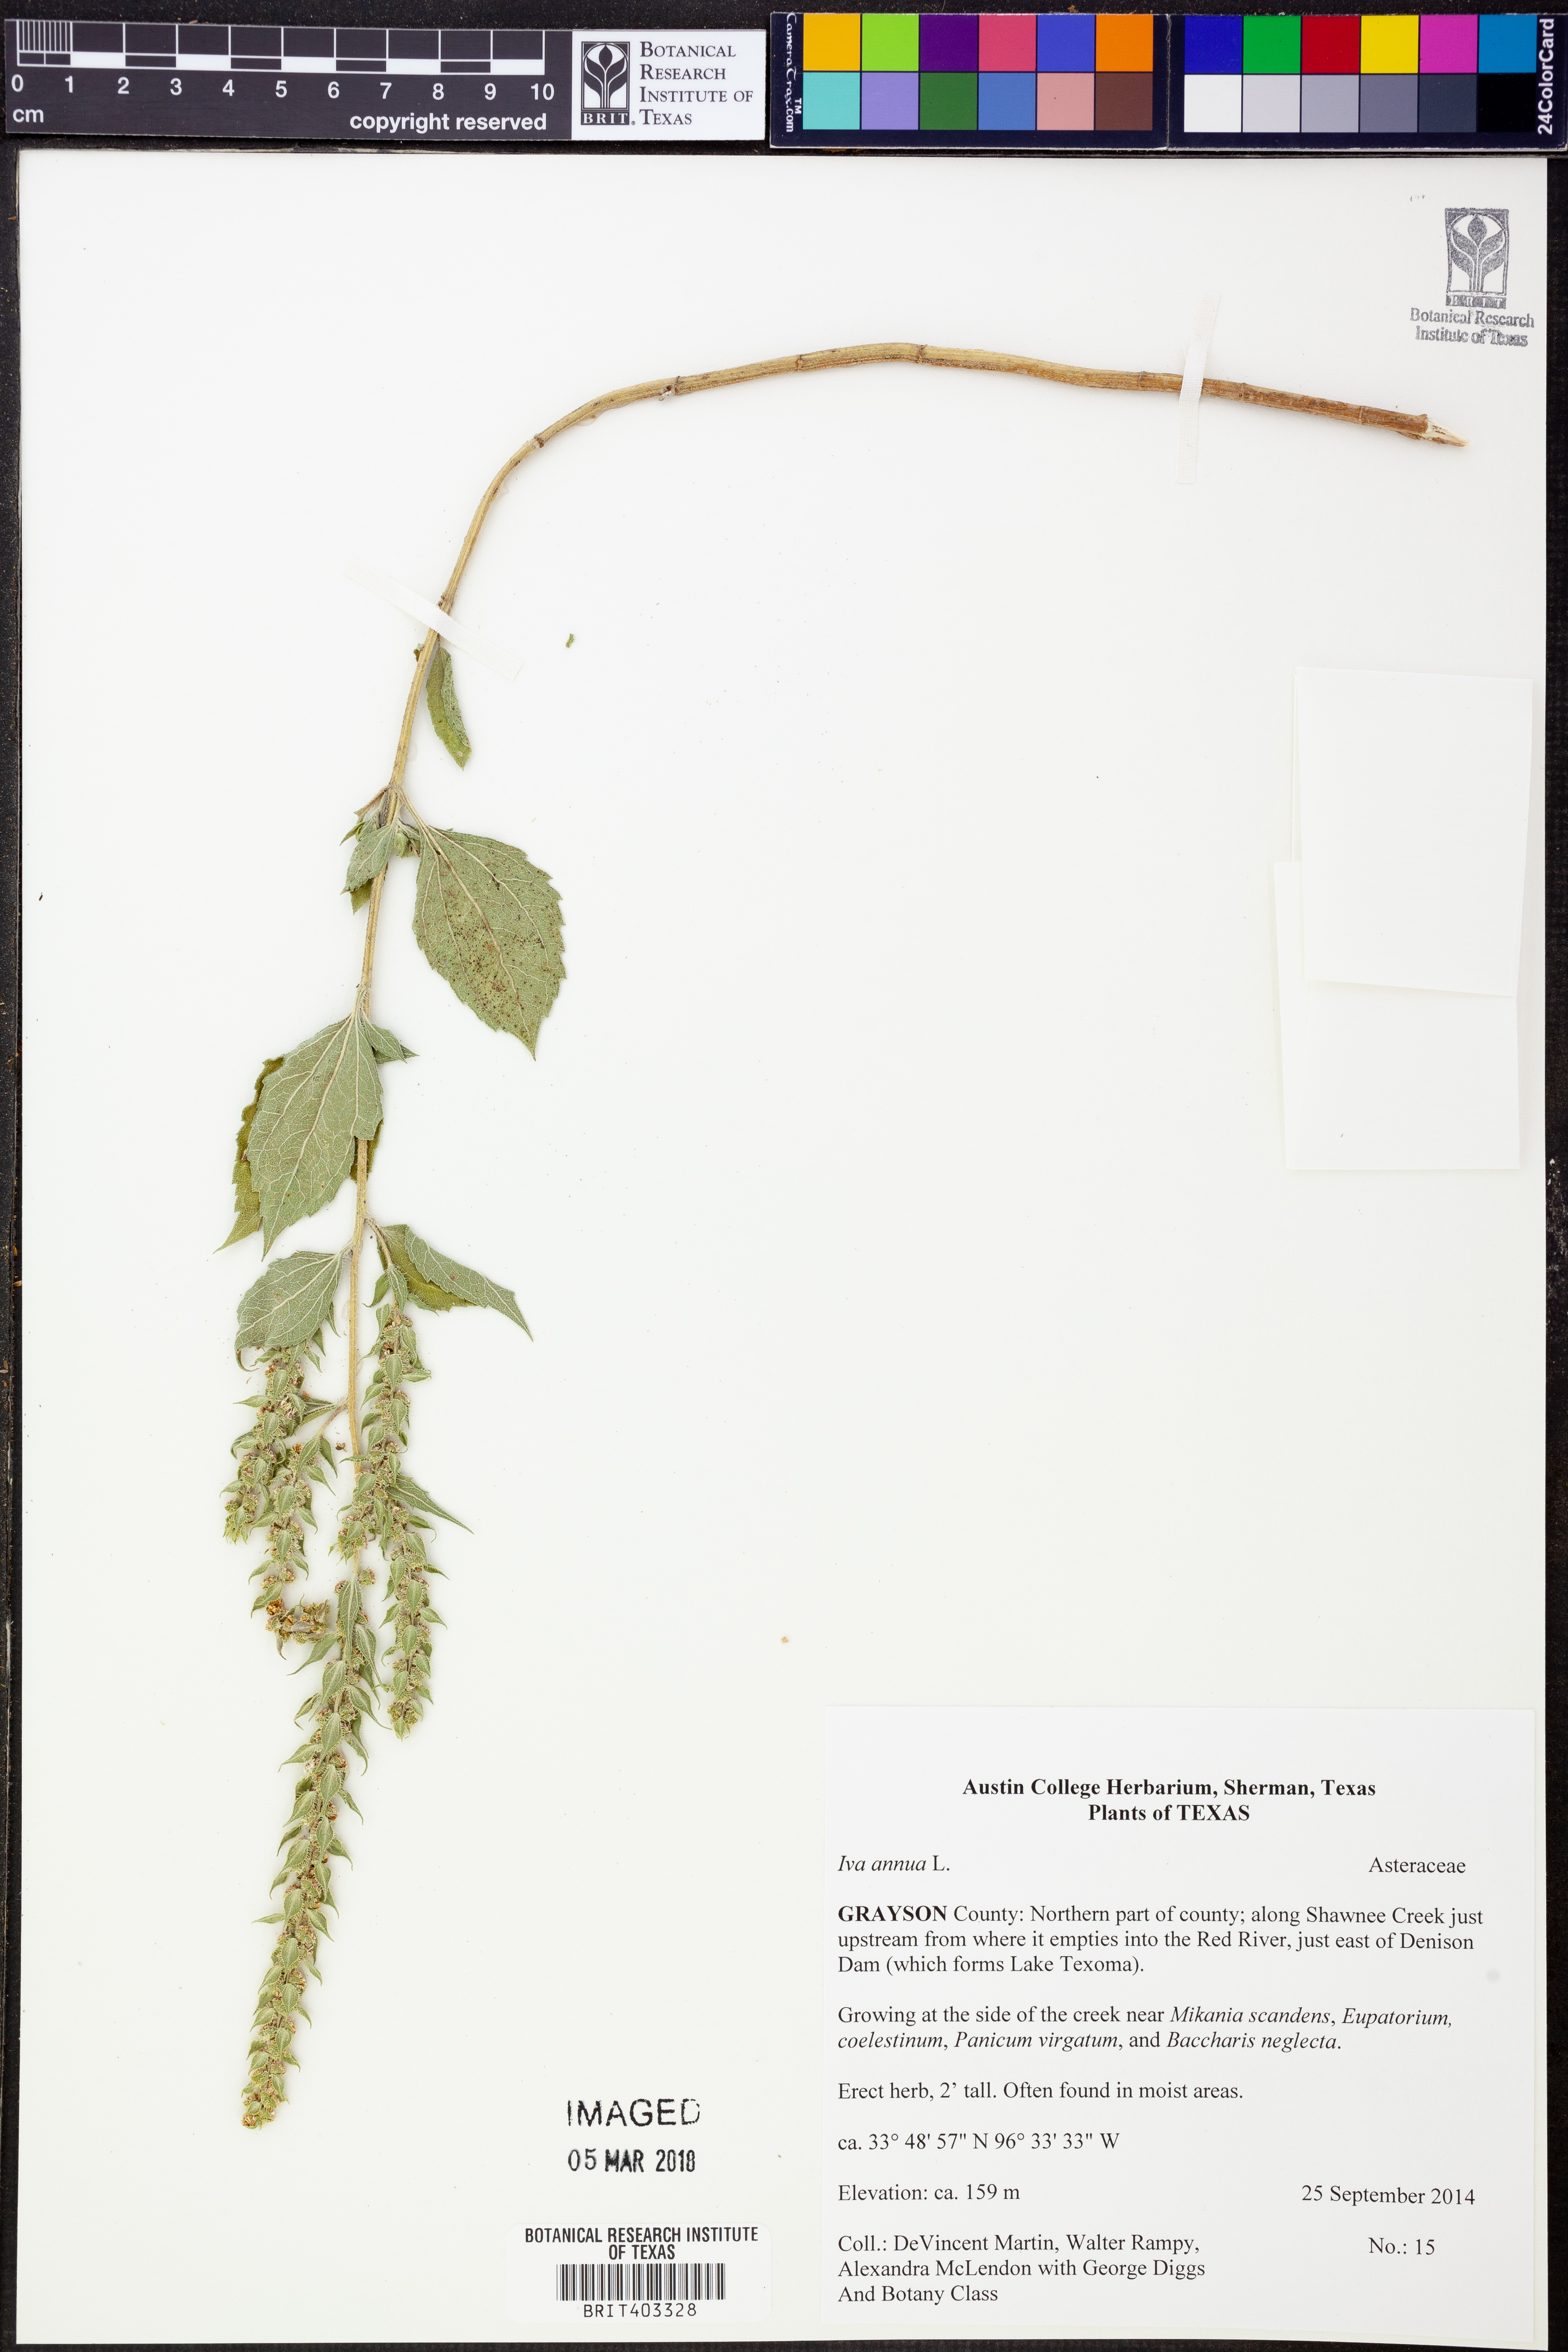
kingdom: Plantae
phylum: Tracheophyta
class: Magnoliopsida
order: Asterales
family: Asteraceae
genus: Iva
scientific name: Iva annua
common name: Marsh-elder
